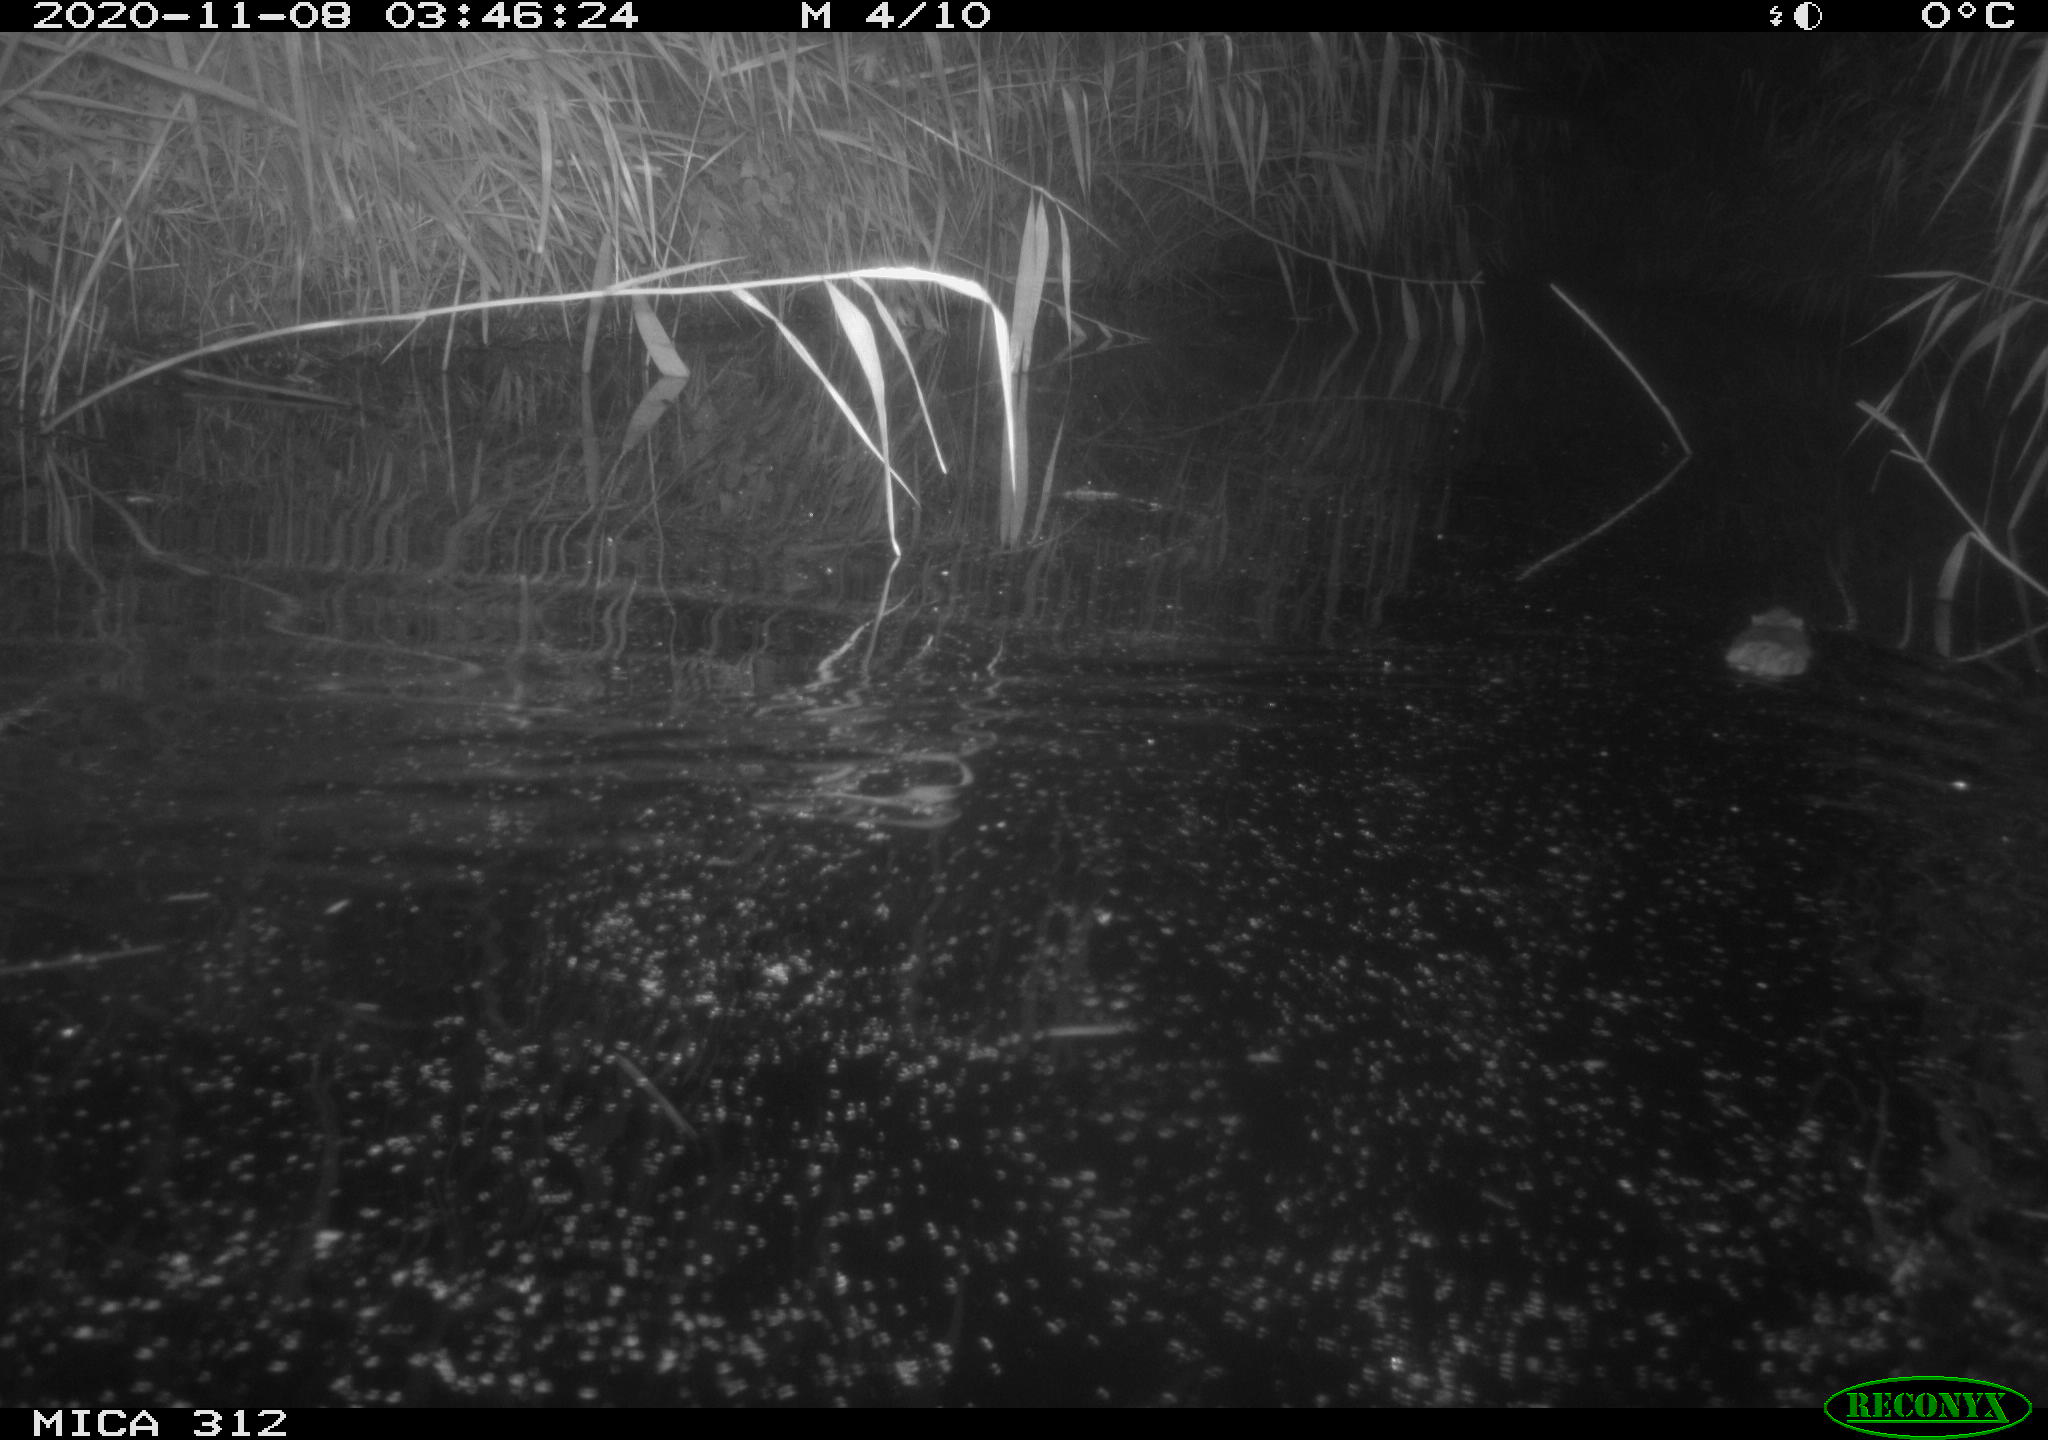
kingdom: Animalia
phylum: Chordata
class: Mammalia
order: Rodentia
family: Muridae
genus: Rattus
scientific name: Rattus norvegicus
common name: Brown rat
